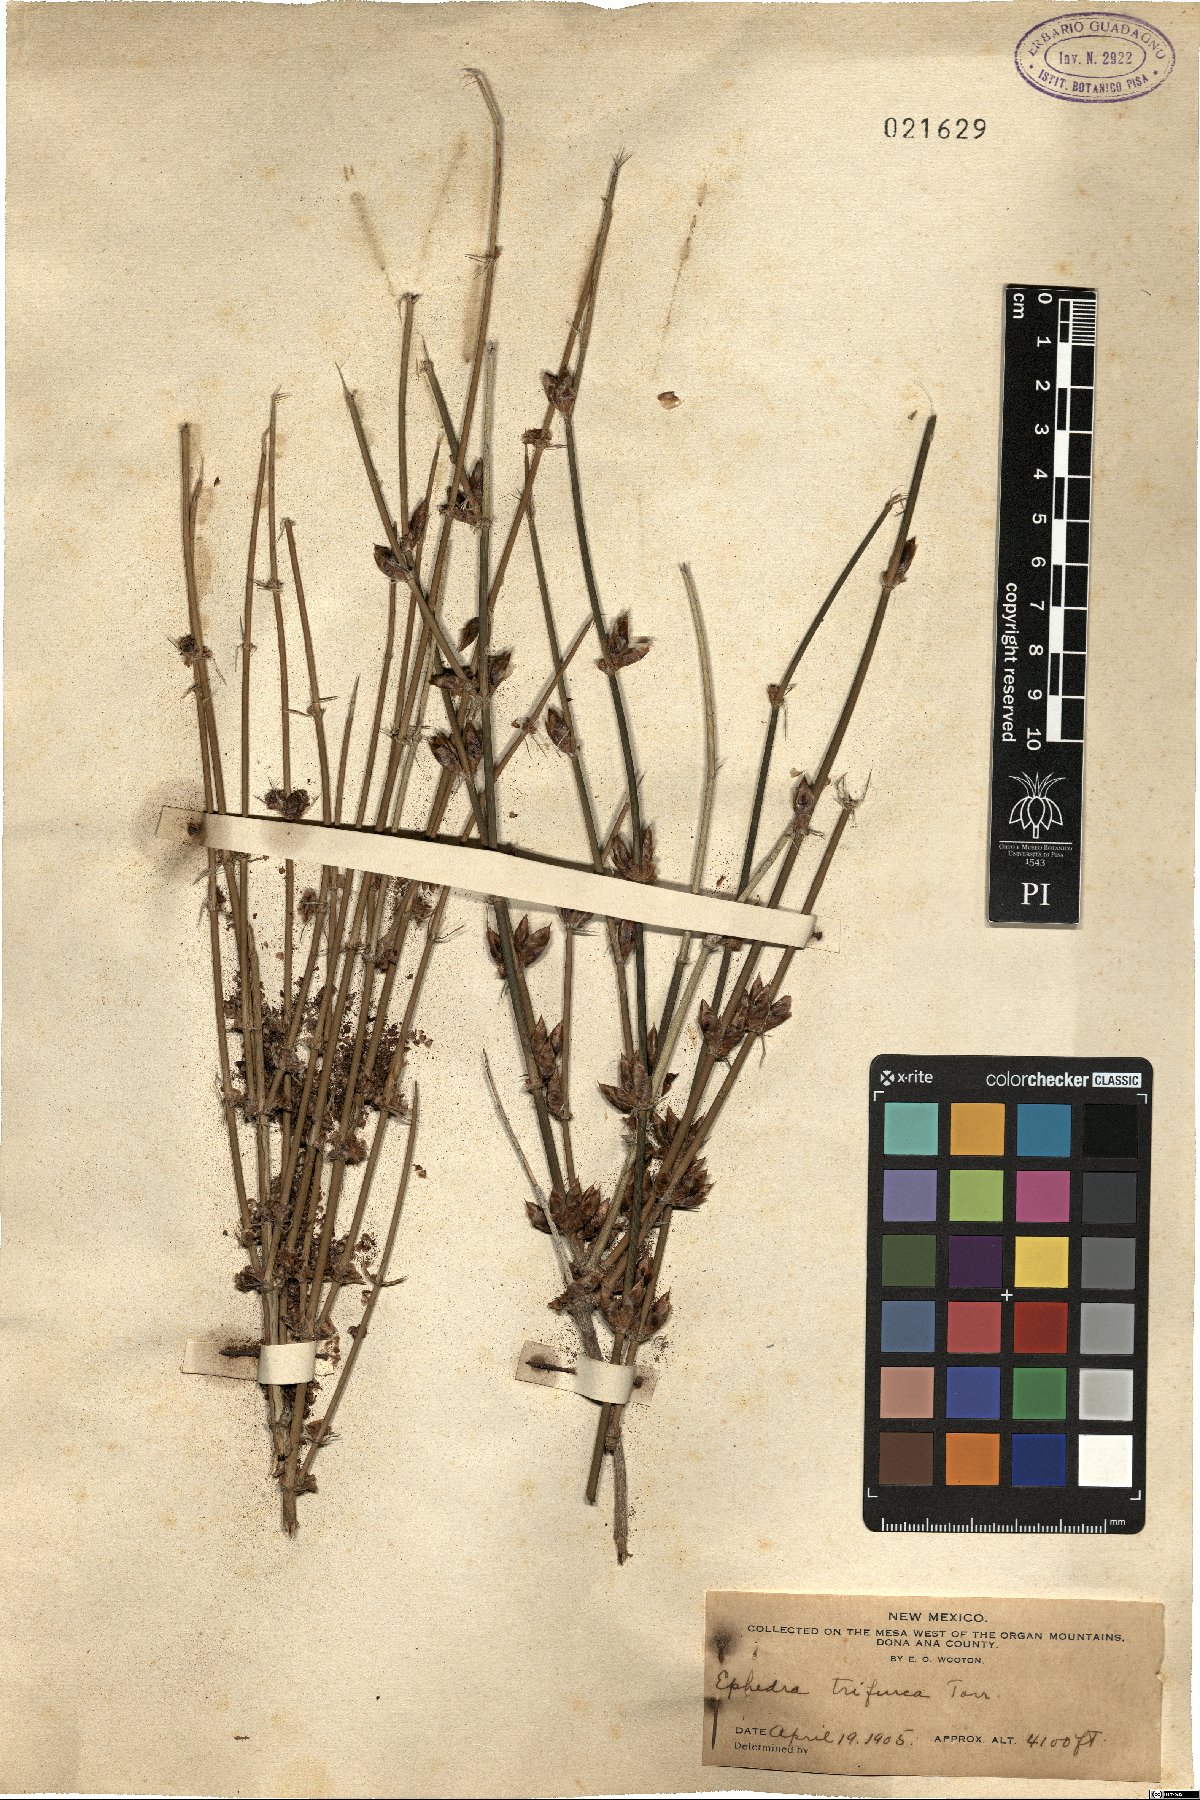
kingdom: Plantae
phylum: Tracheophyta
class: Gnetopsida
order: Ephedrales
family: Ephedraceae
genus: Ephedra
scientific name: Ephedra trifurca
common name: Mexican-tea
